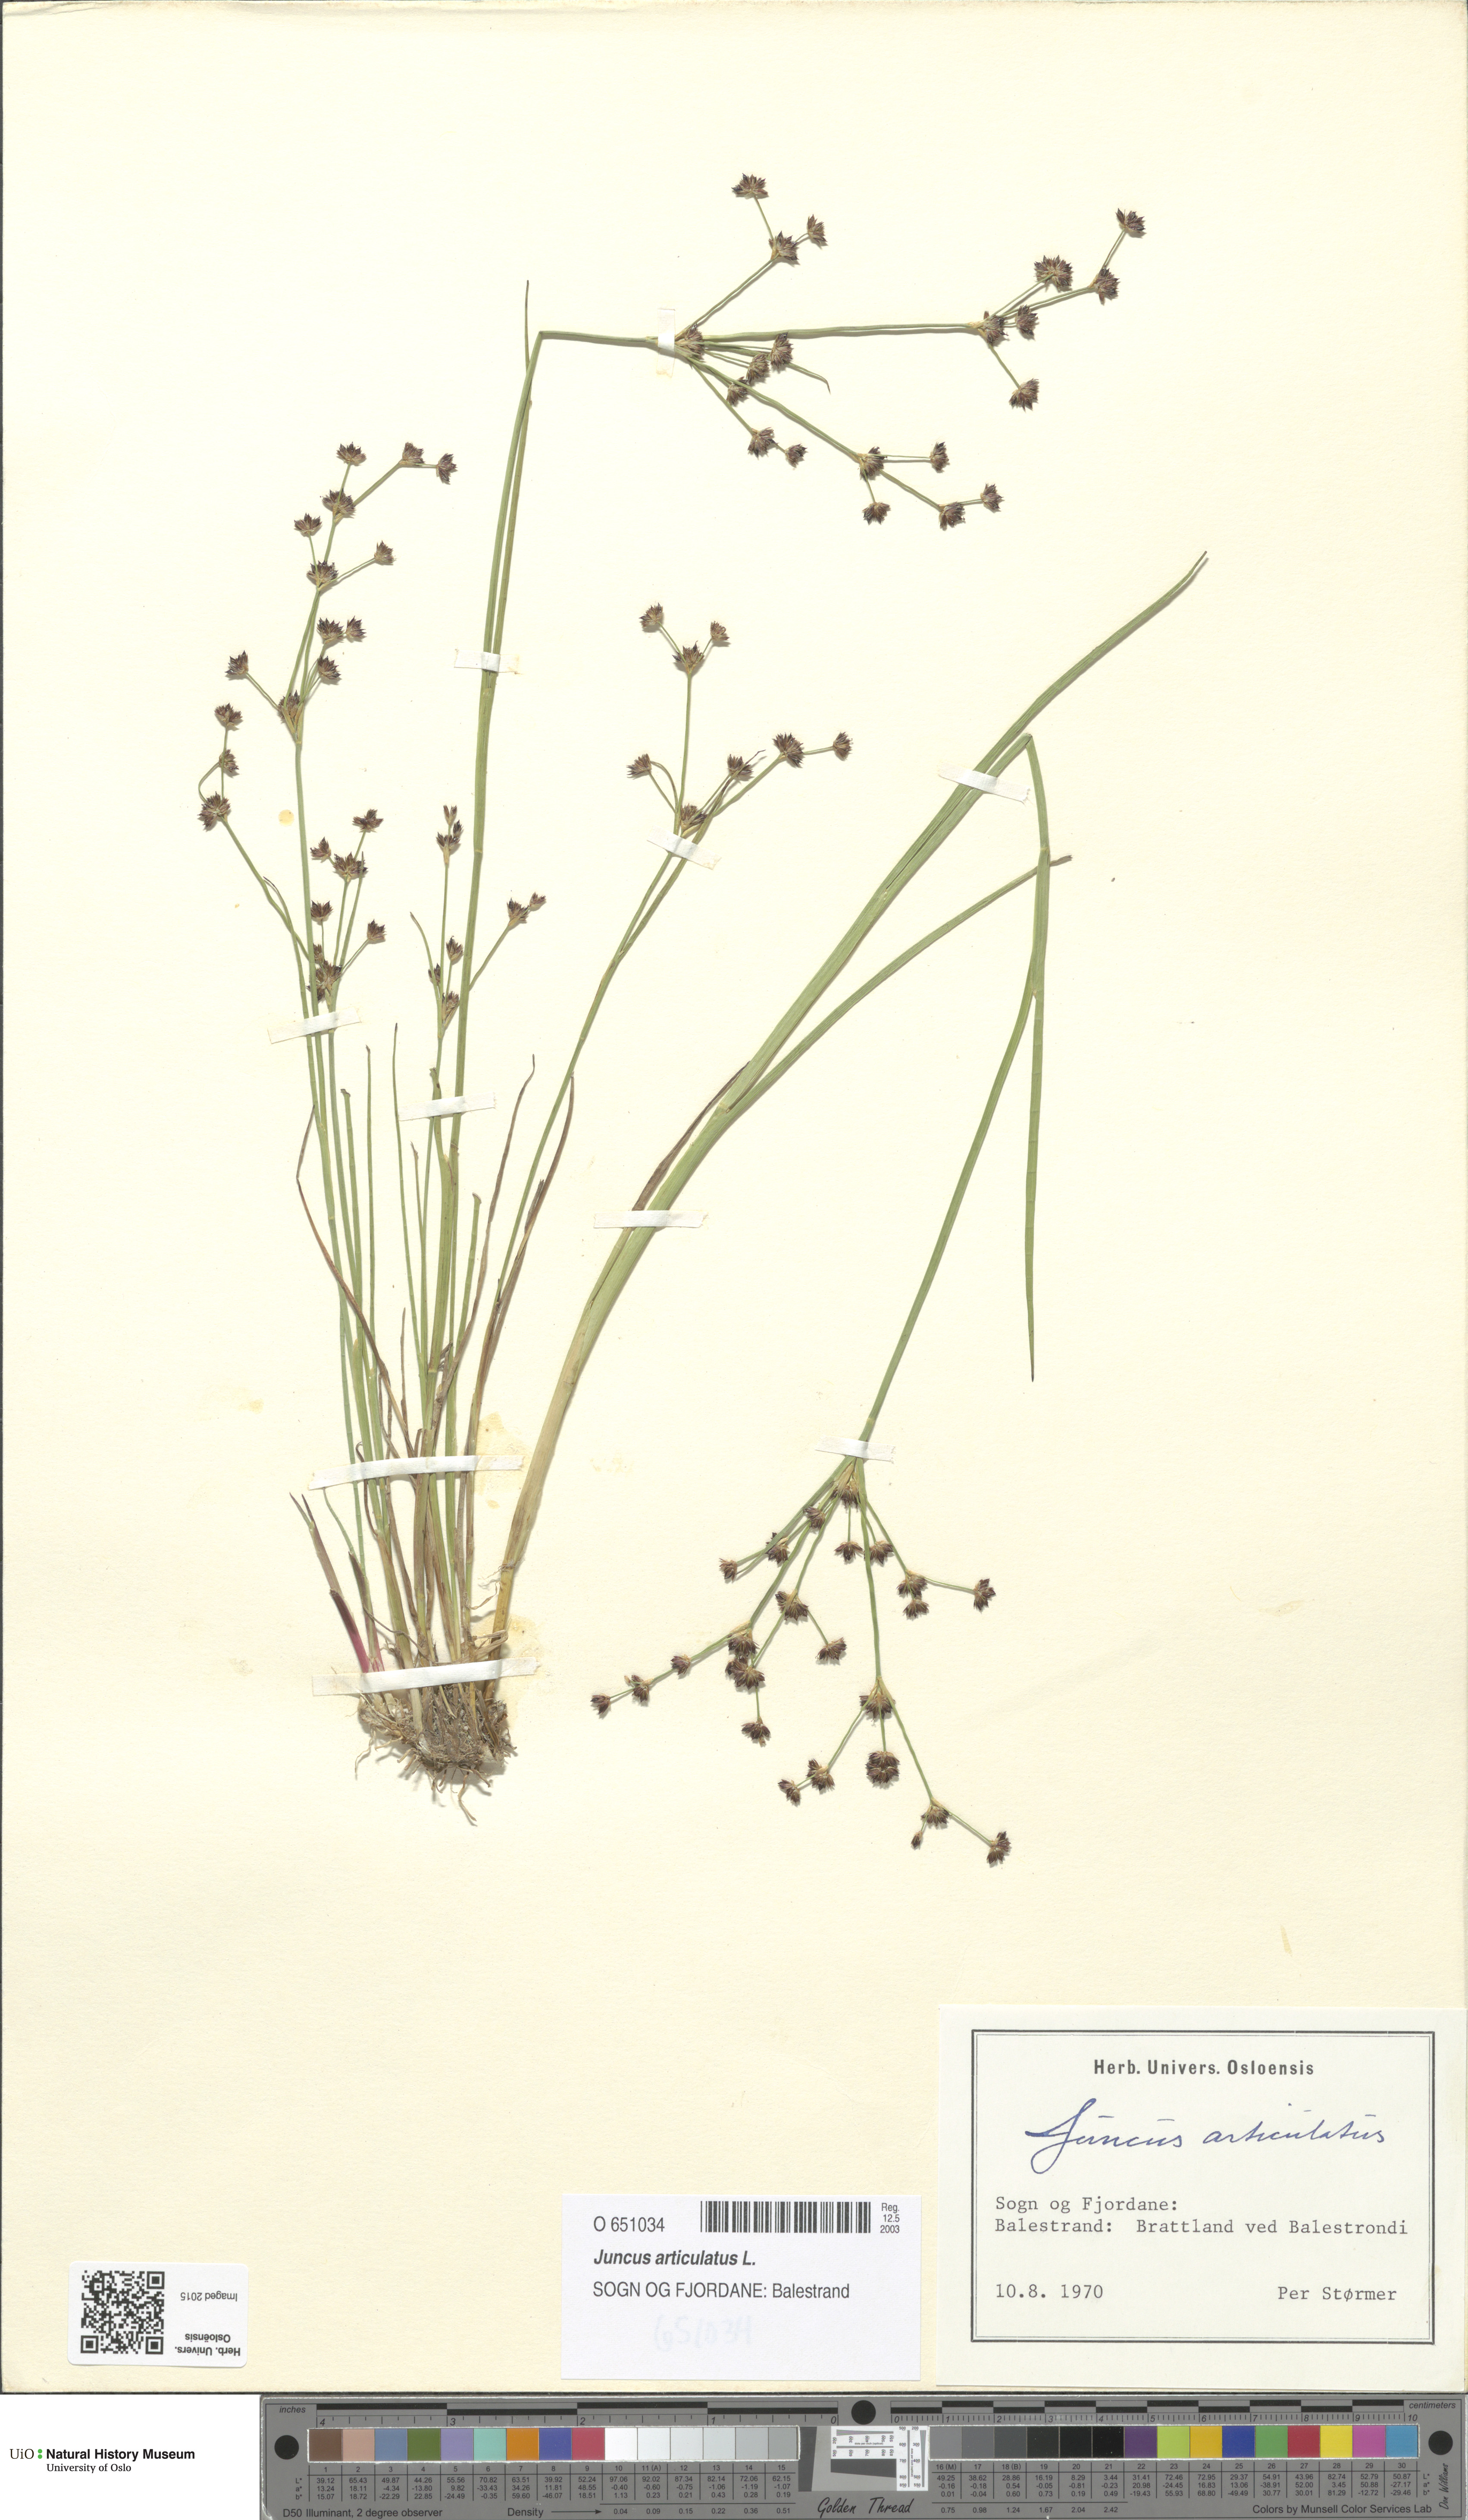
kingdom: Plantae
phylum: Tracheophyta
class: Liliopsida
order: Poales
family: Juncaceae
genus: Juncus
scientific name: Juncus articulatus
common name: Jointed rush
